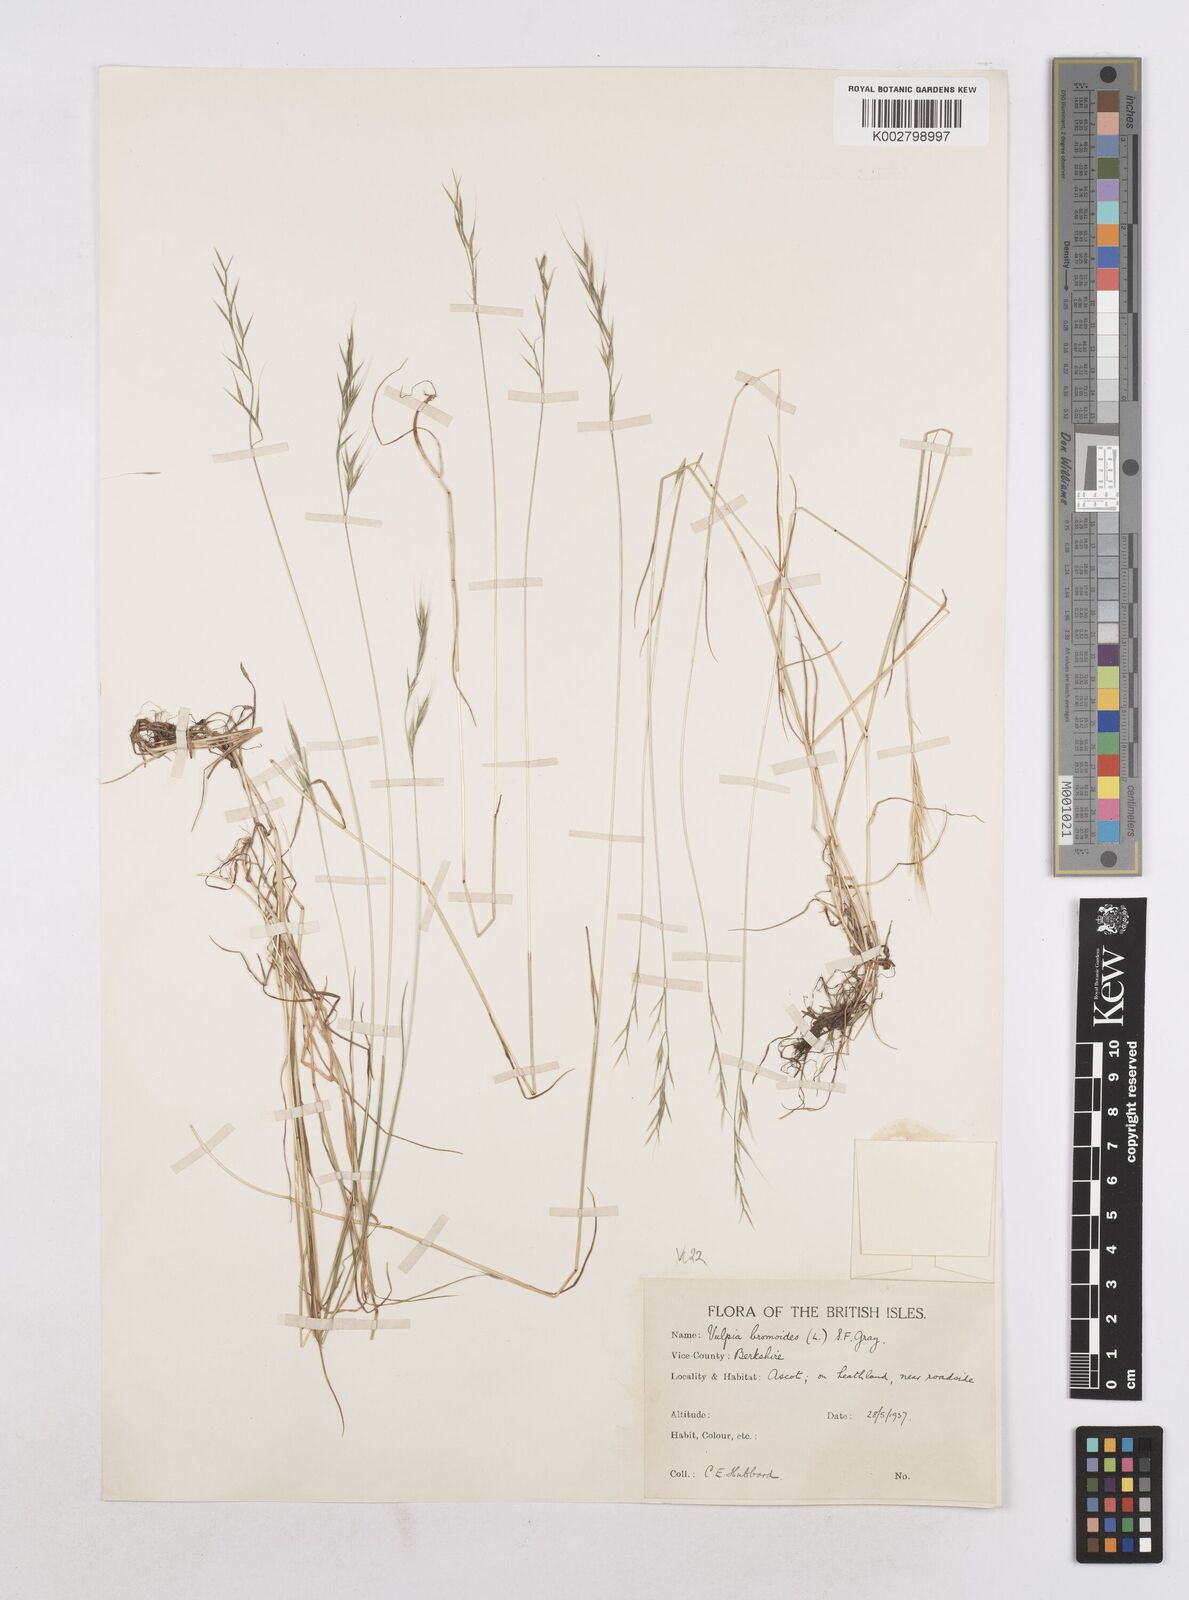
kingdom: Plantae
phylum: Tracheophyta
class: Liliopsida
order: Poales
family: Poaceae
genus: Festuca
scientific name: Festuca bromoides
